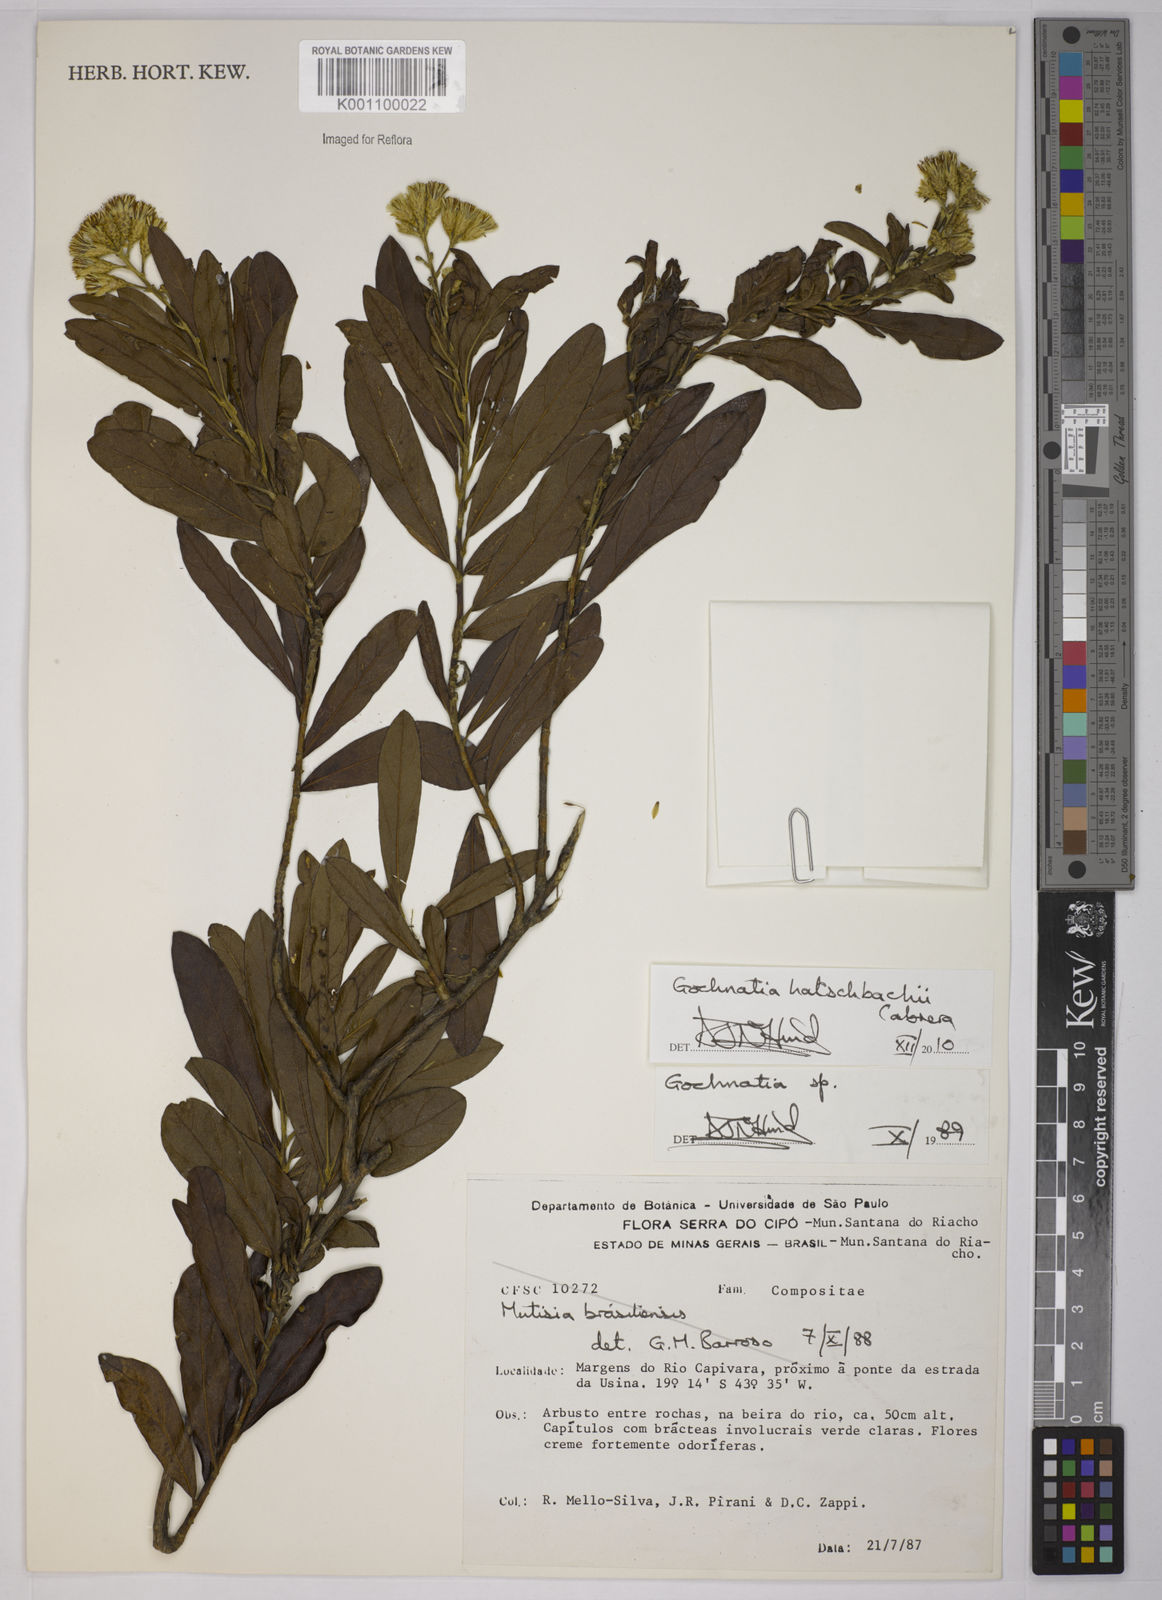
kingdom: Plantae
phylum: Tracheophyta
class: Magnoliopsida
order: Asterales
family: Asteraceae
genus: Moquiniastrum
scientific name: Moquiniastrum hatschbachii
